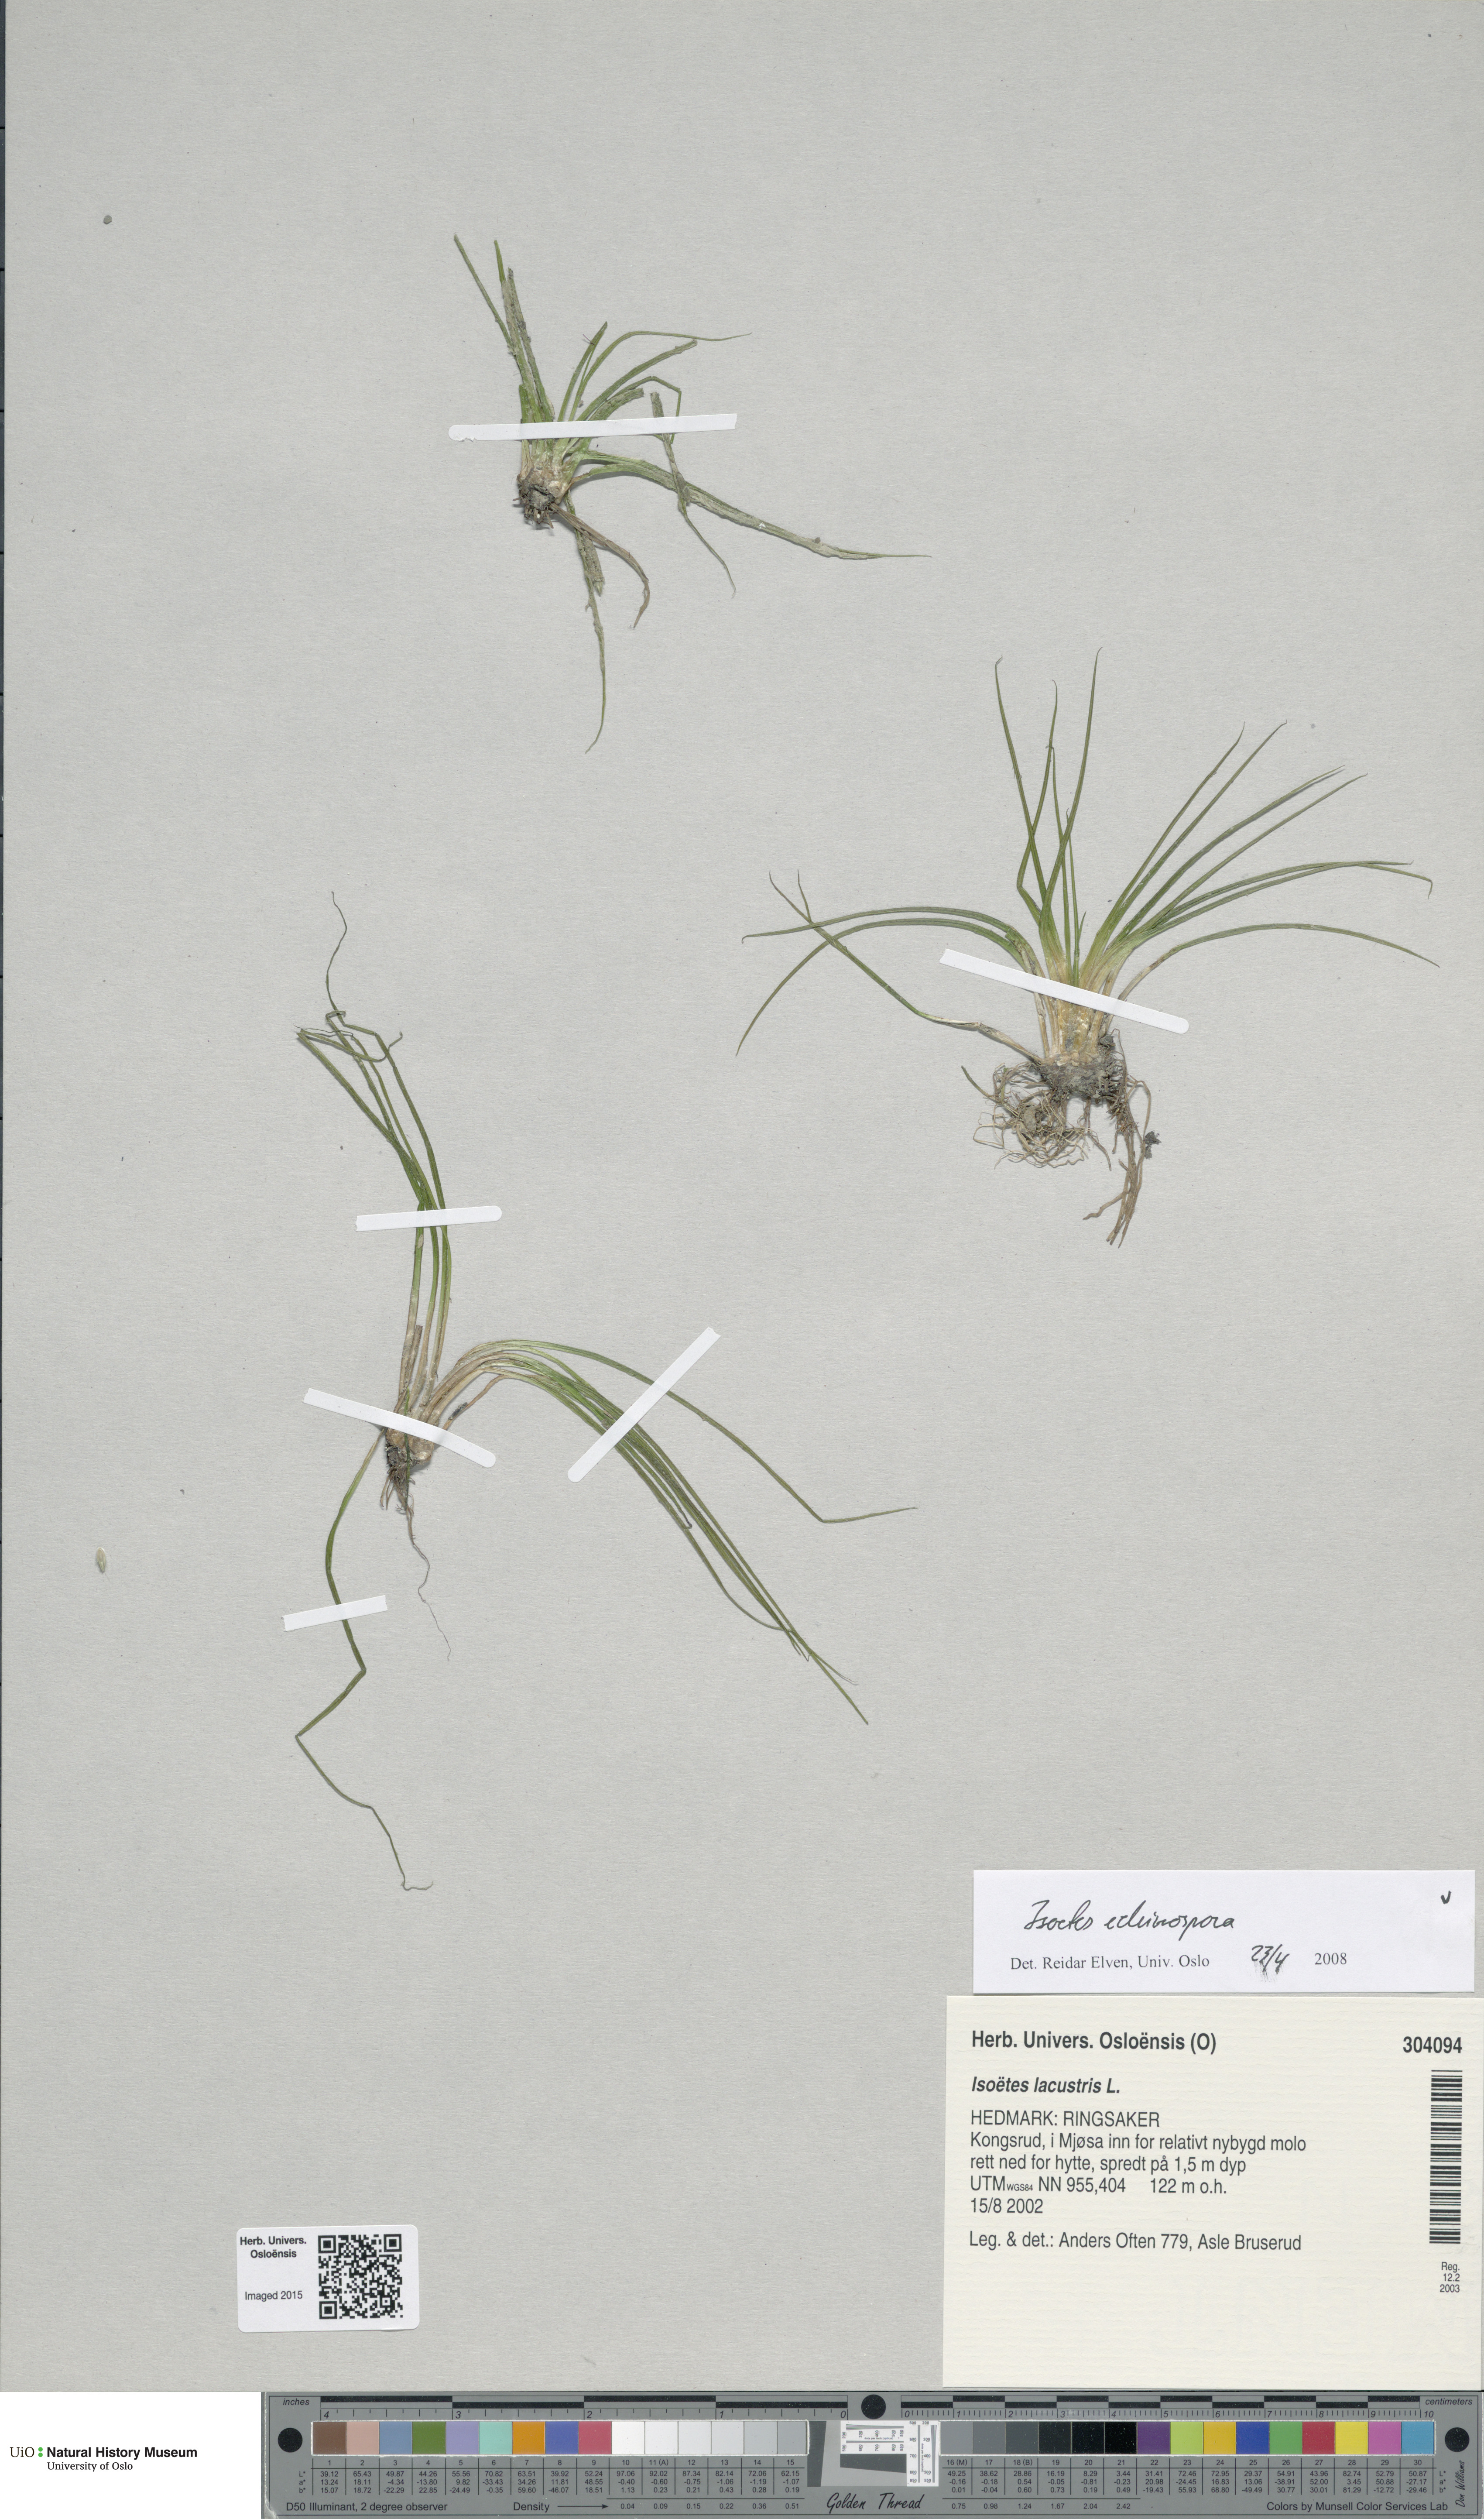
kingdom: Plantae
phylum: Tracheophyta
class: Lycopodiopsida
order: Isoetales
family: Isoetaceae
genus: Isoetes
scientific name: Isoetes echinospora
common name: Spring quillwort
